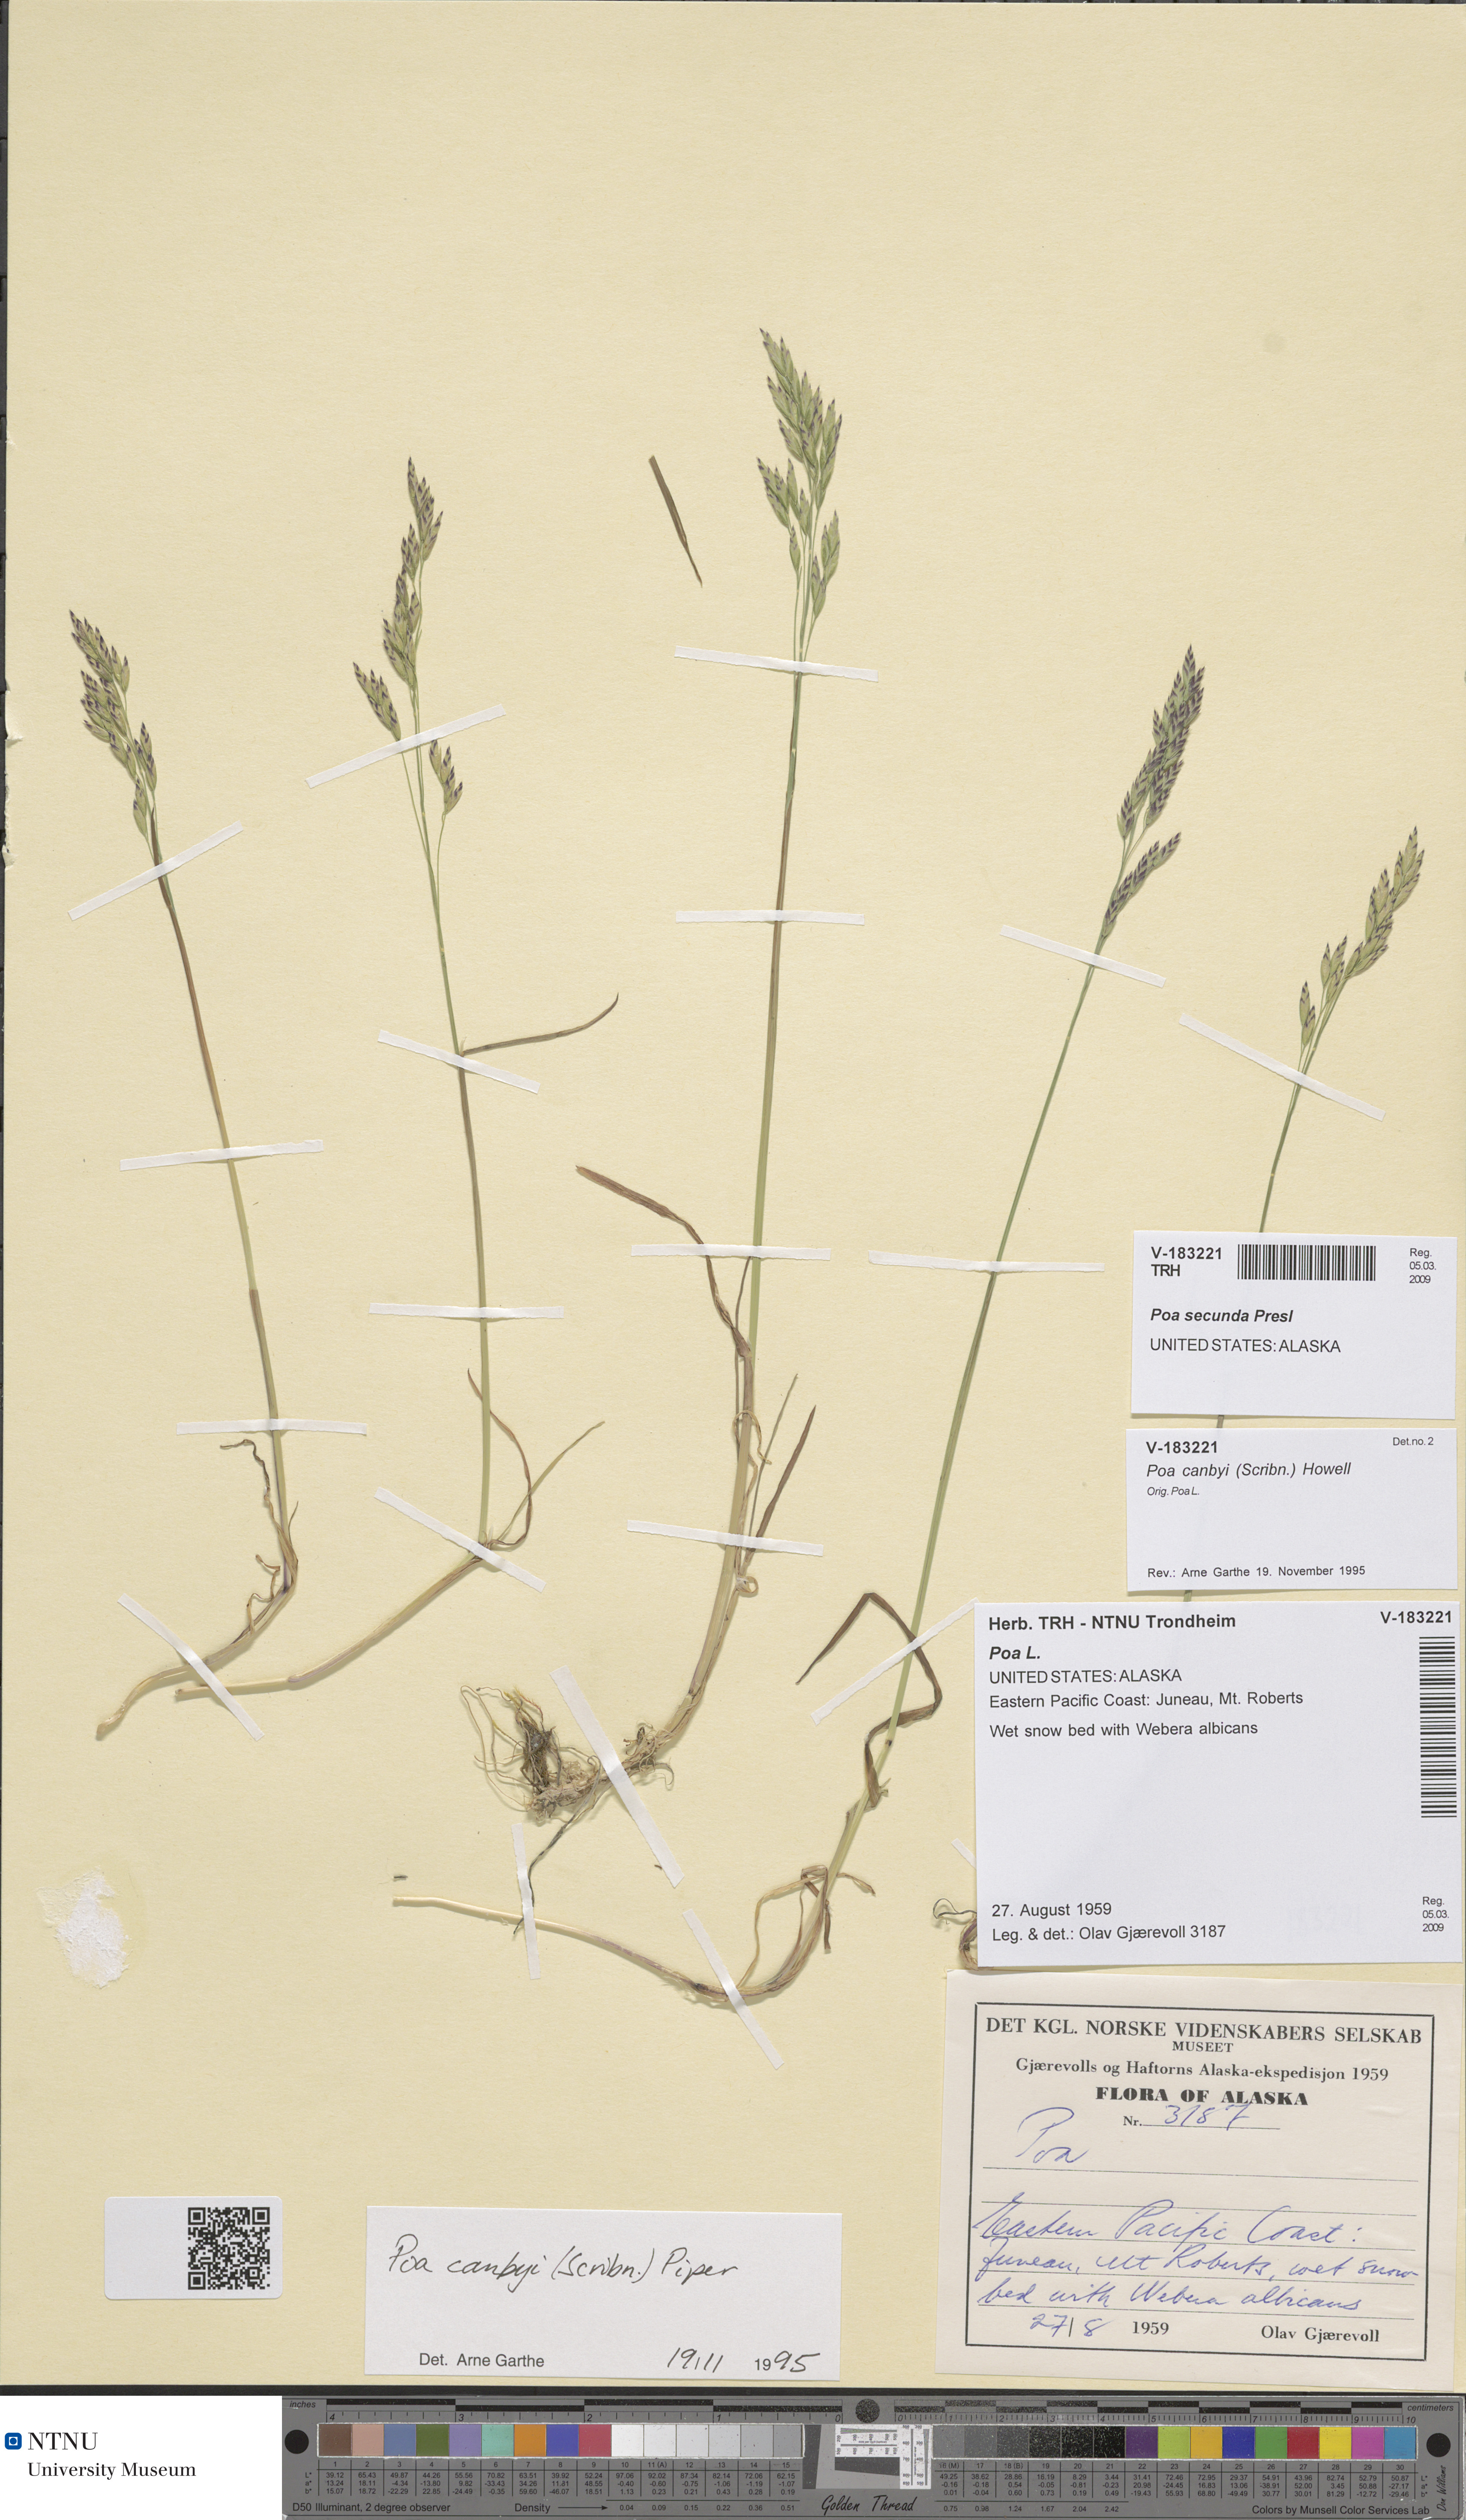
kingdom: Plantae
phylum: Tracheophyta
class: Liliopsida
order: Poales
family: Poaceae
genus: Poa
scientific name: Poa secunda
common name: Sandberg bluegrass
